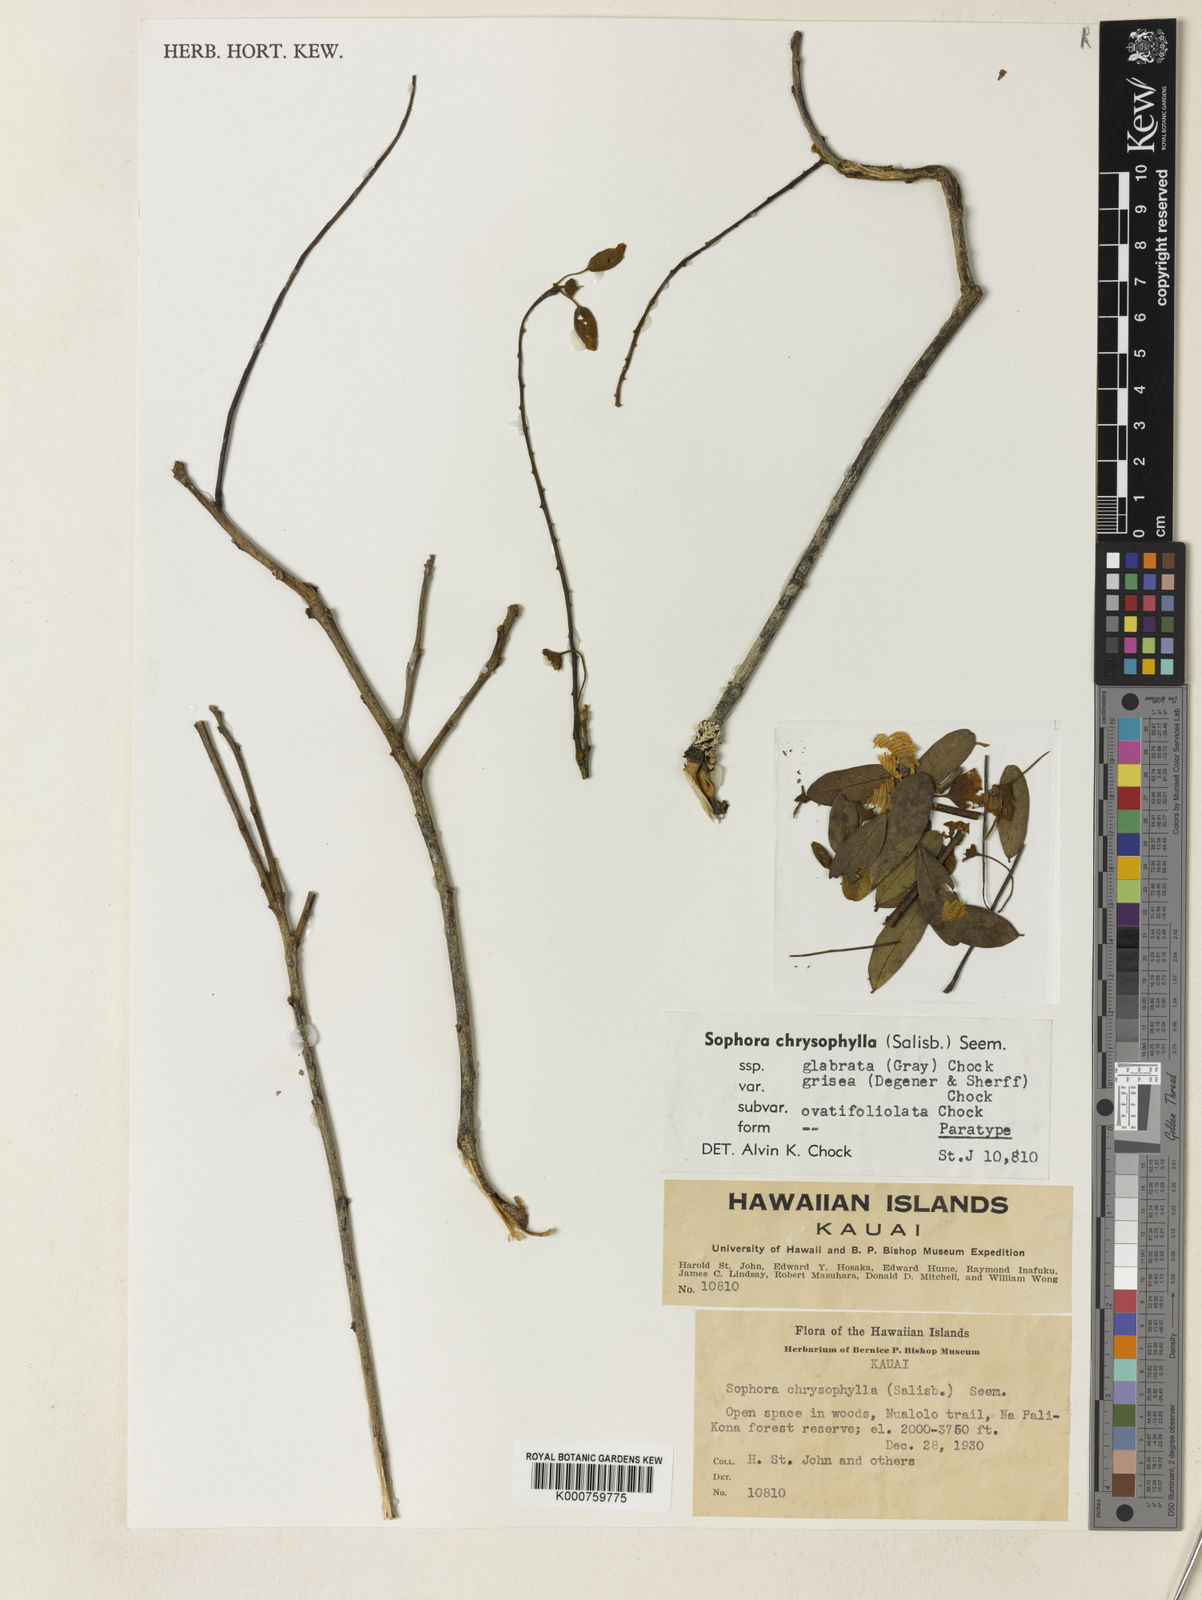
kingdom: Plantae
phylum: Tracheophyta
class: Magnoliopsida
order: Fabales
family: Fabaceae
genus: Sophora
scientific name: Sophora chrysophylla
